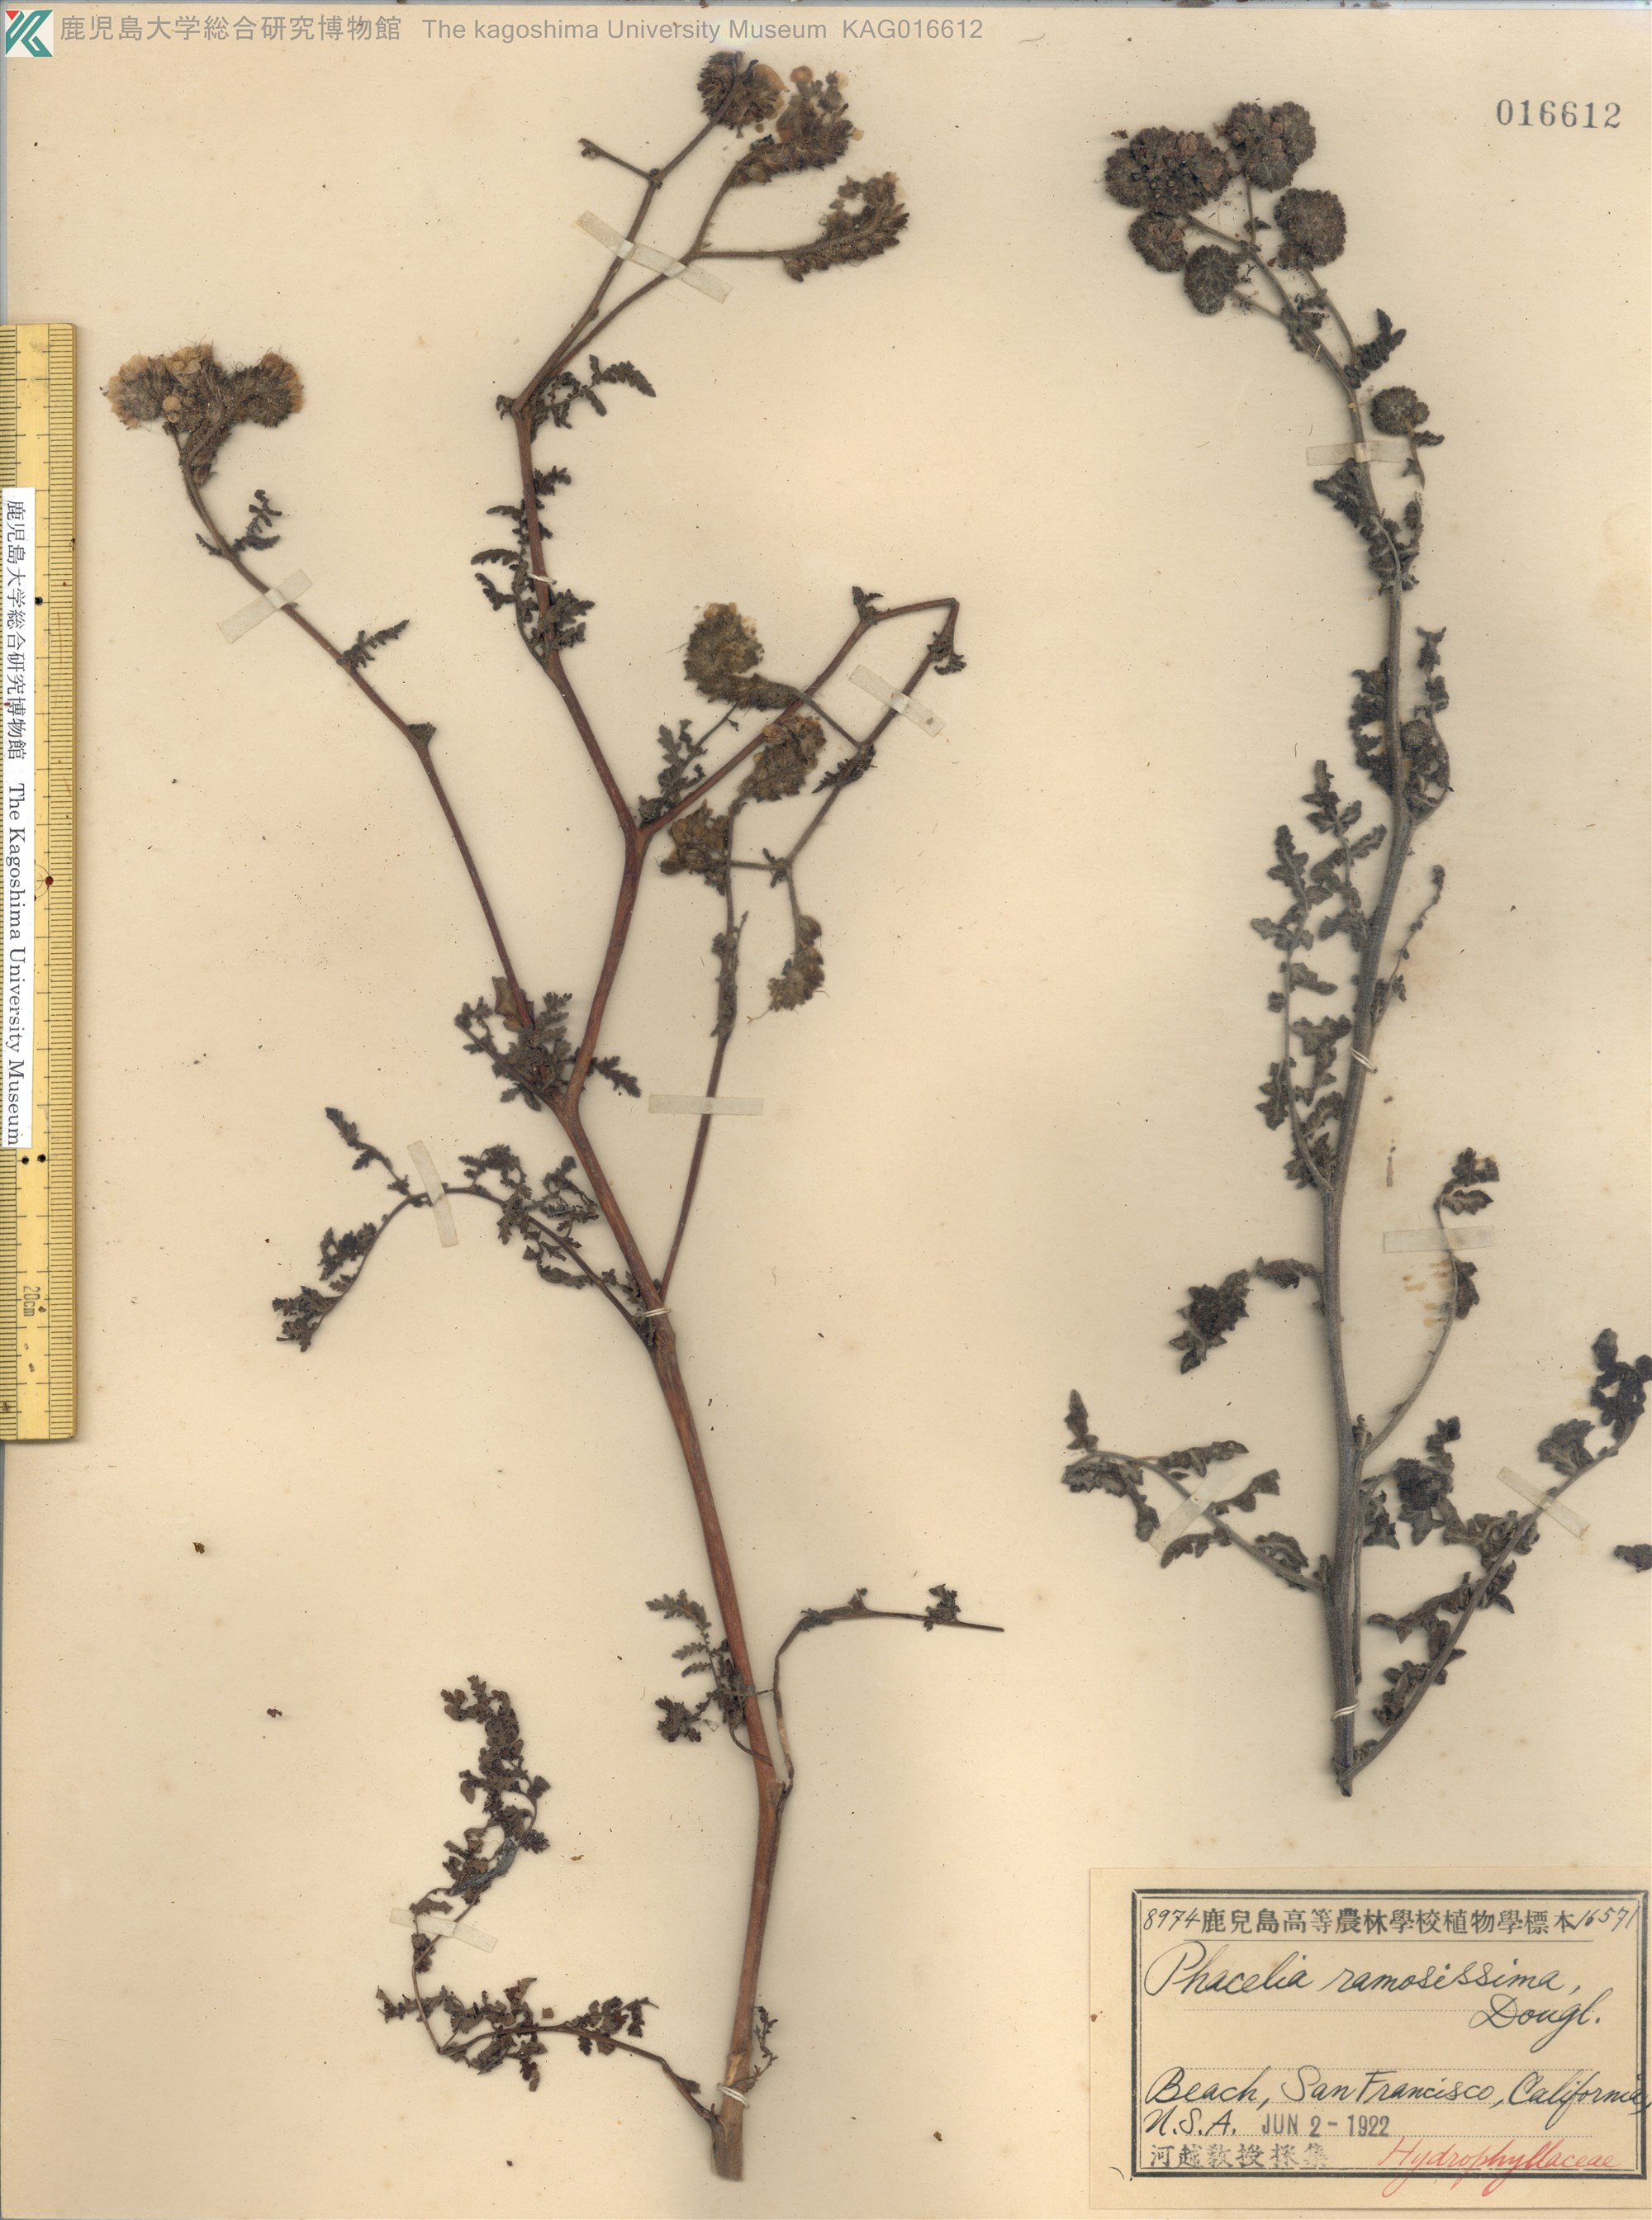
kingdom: Plantae
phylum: Tracheophyta
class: Magnoliopsida
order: Boraginales
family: Hydrophyllaceae
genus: Phacelia
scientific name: Phacelia ramosissima
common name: Branching phacelia
